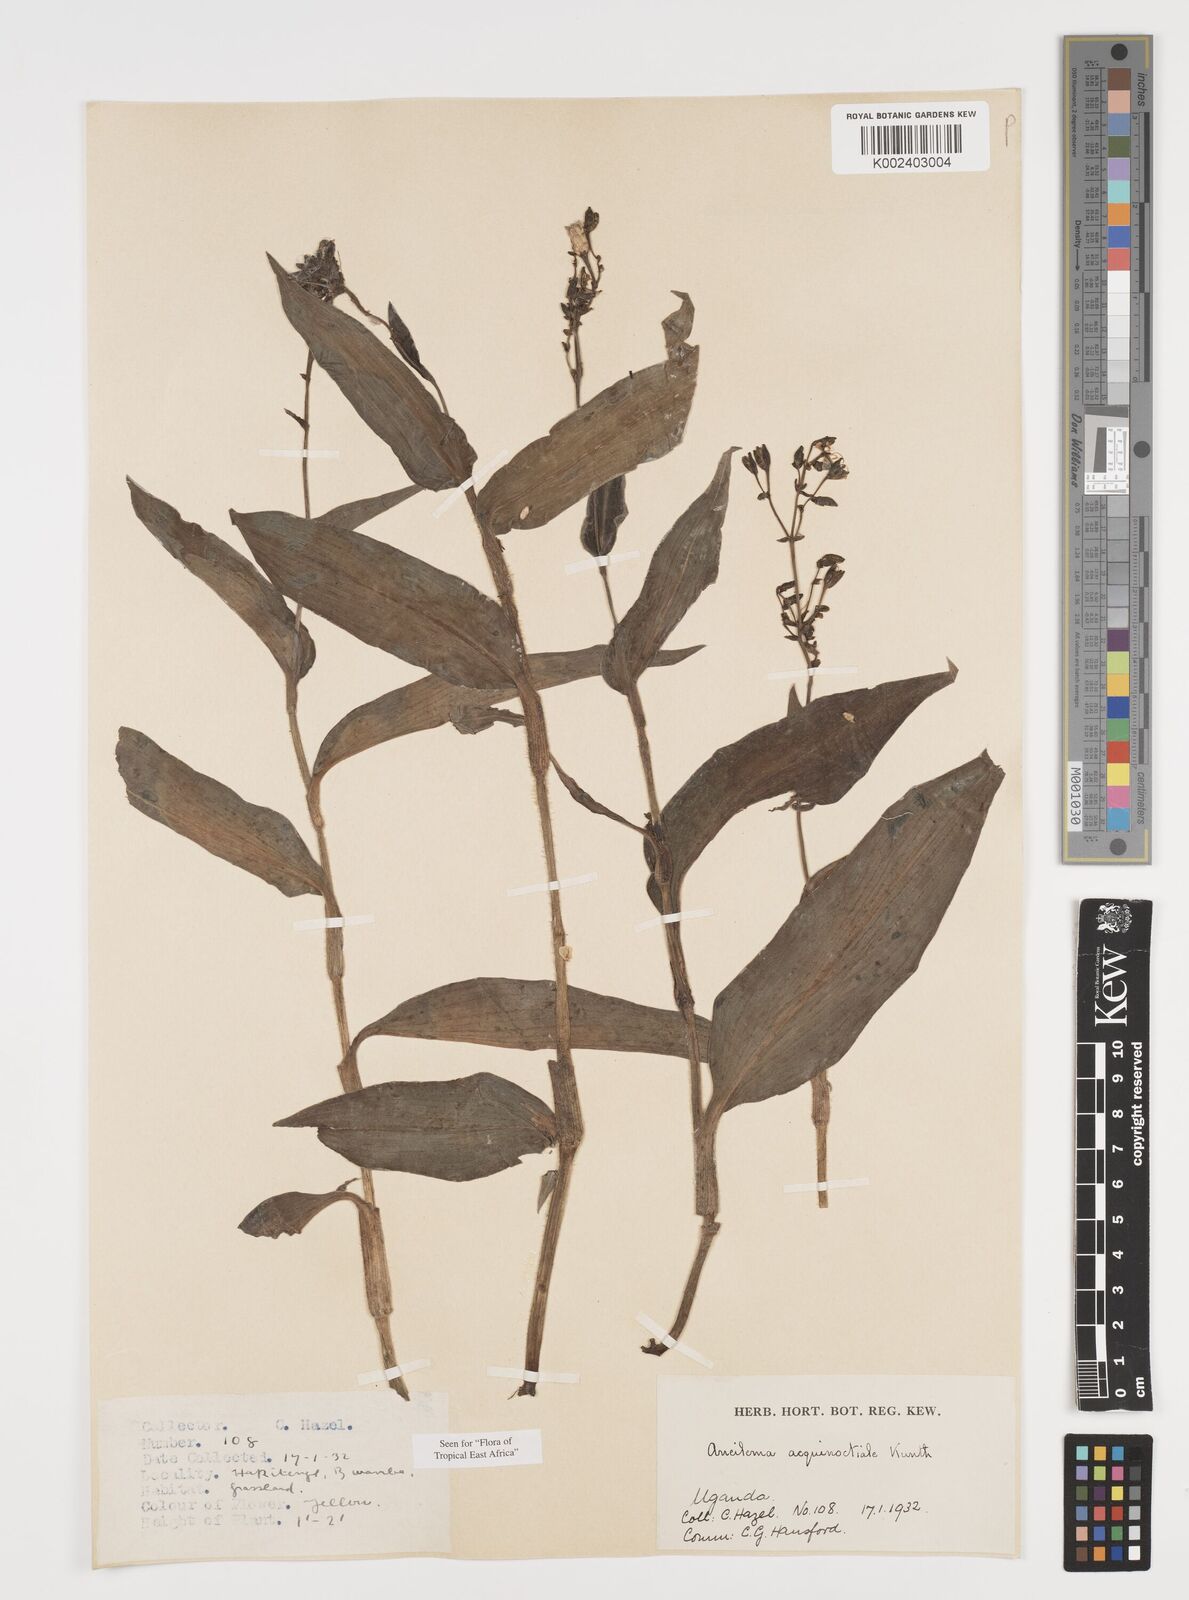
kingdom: Plantae
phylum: Tracheophyta
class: Liliopsida
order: Commelinales
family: Commelinaceae
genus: Aneilema
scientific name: Aneilema aequinoctiale
